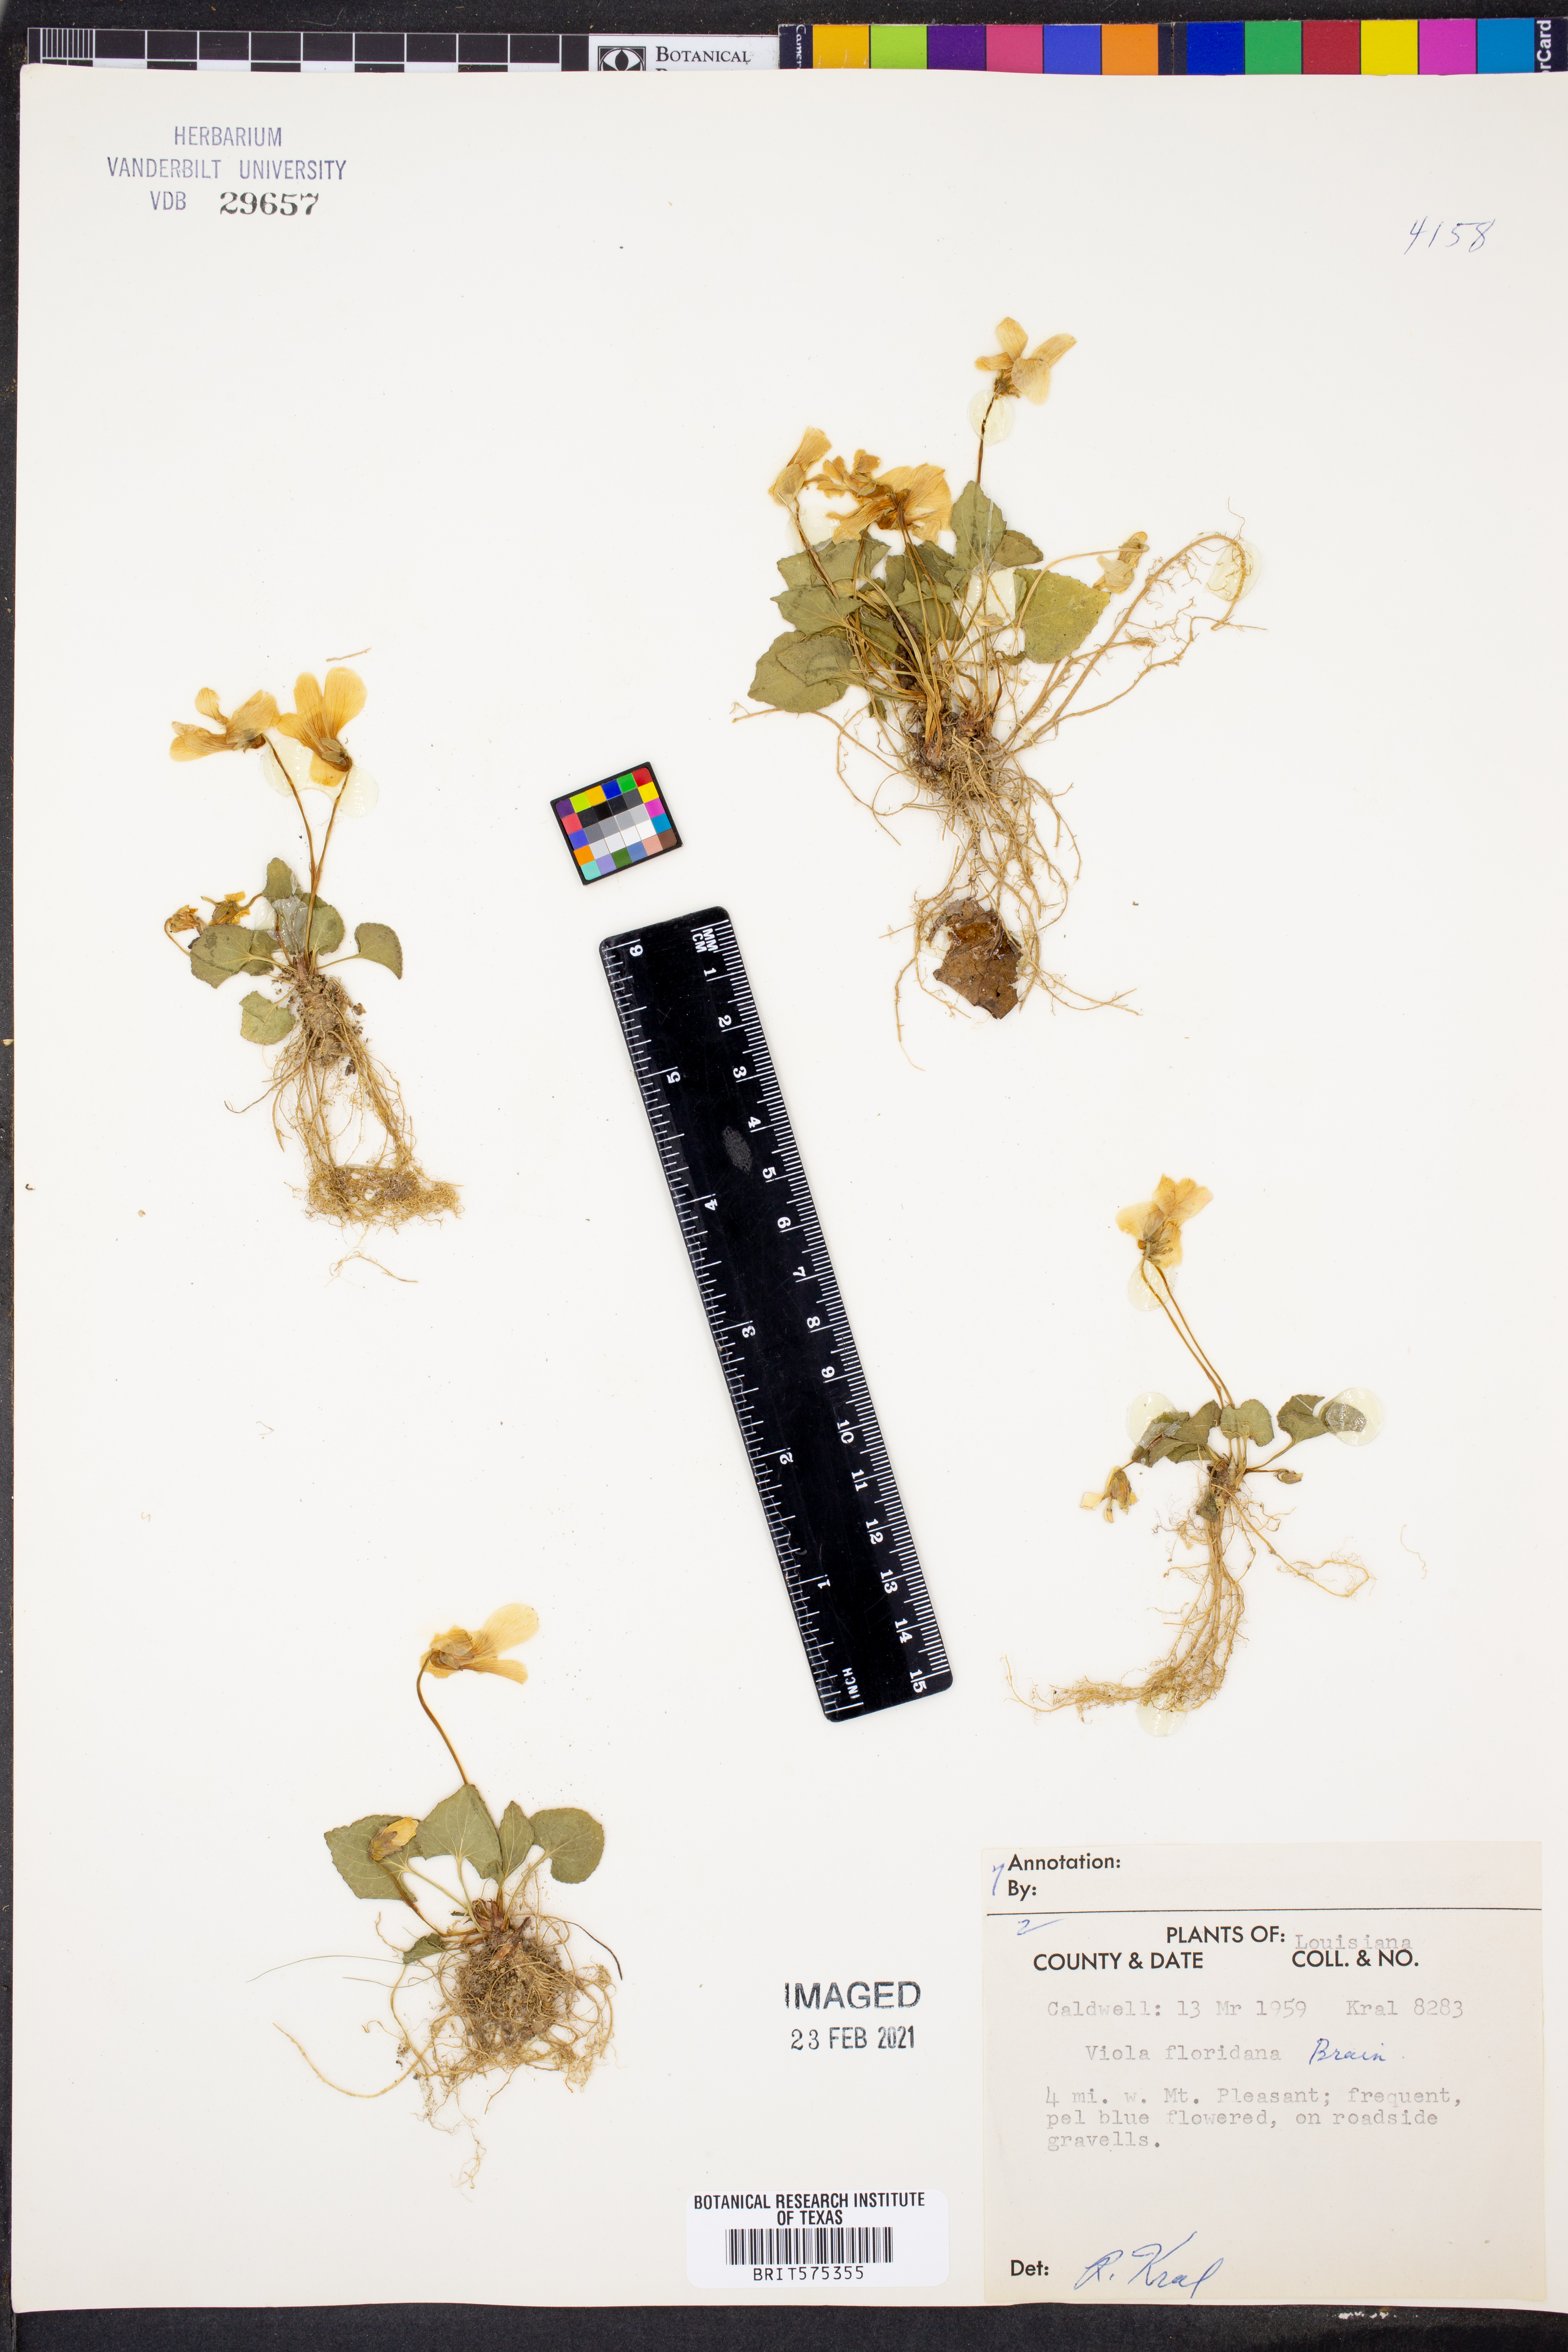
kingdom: Plantae
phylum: Tracheophyta
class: Magnoliopsida
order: Malpighiales
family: Violaceae
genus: Viola
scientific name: Viola floridana
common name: Florida violet
